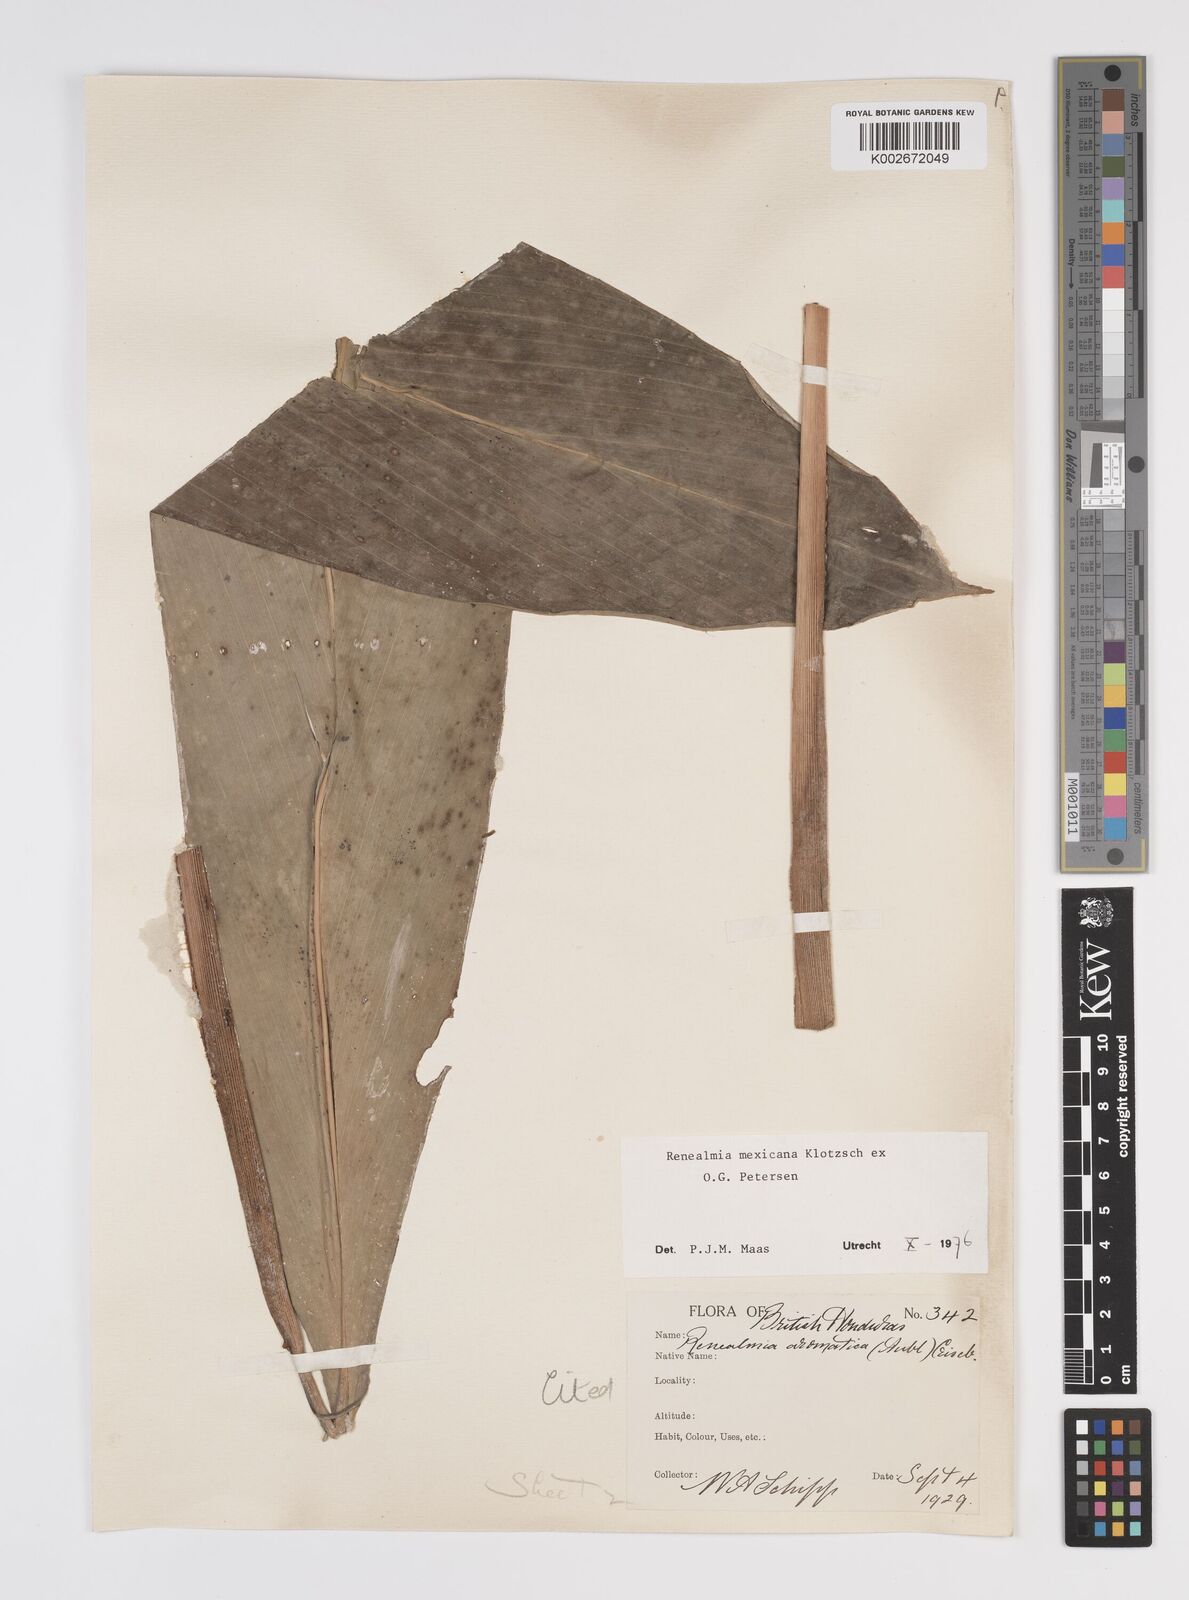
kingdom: Plantae
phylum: Tracheophyta
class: Liliopsida
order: Zingiberales
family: Zingiberaceae
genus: Renealmia
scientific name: Renealmia mexicana
